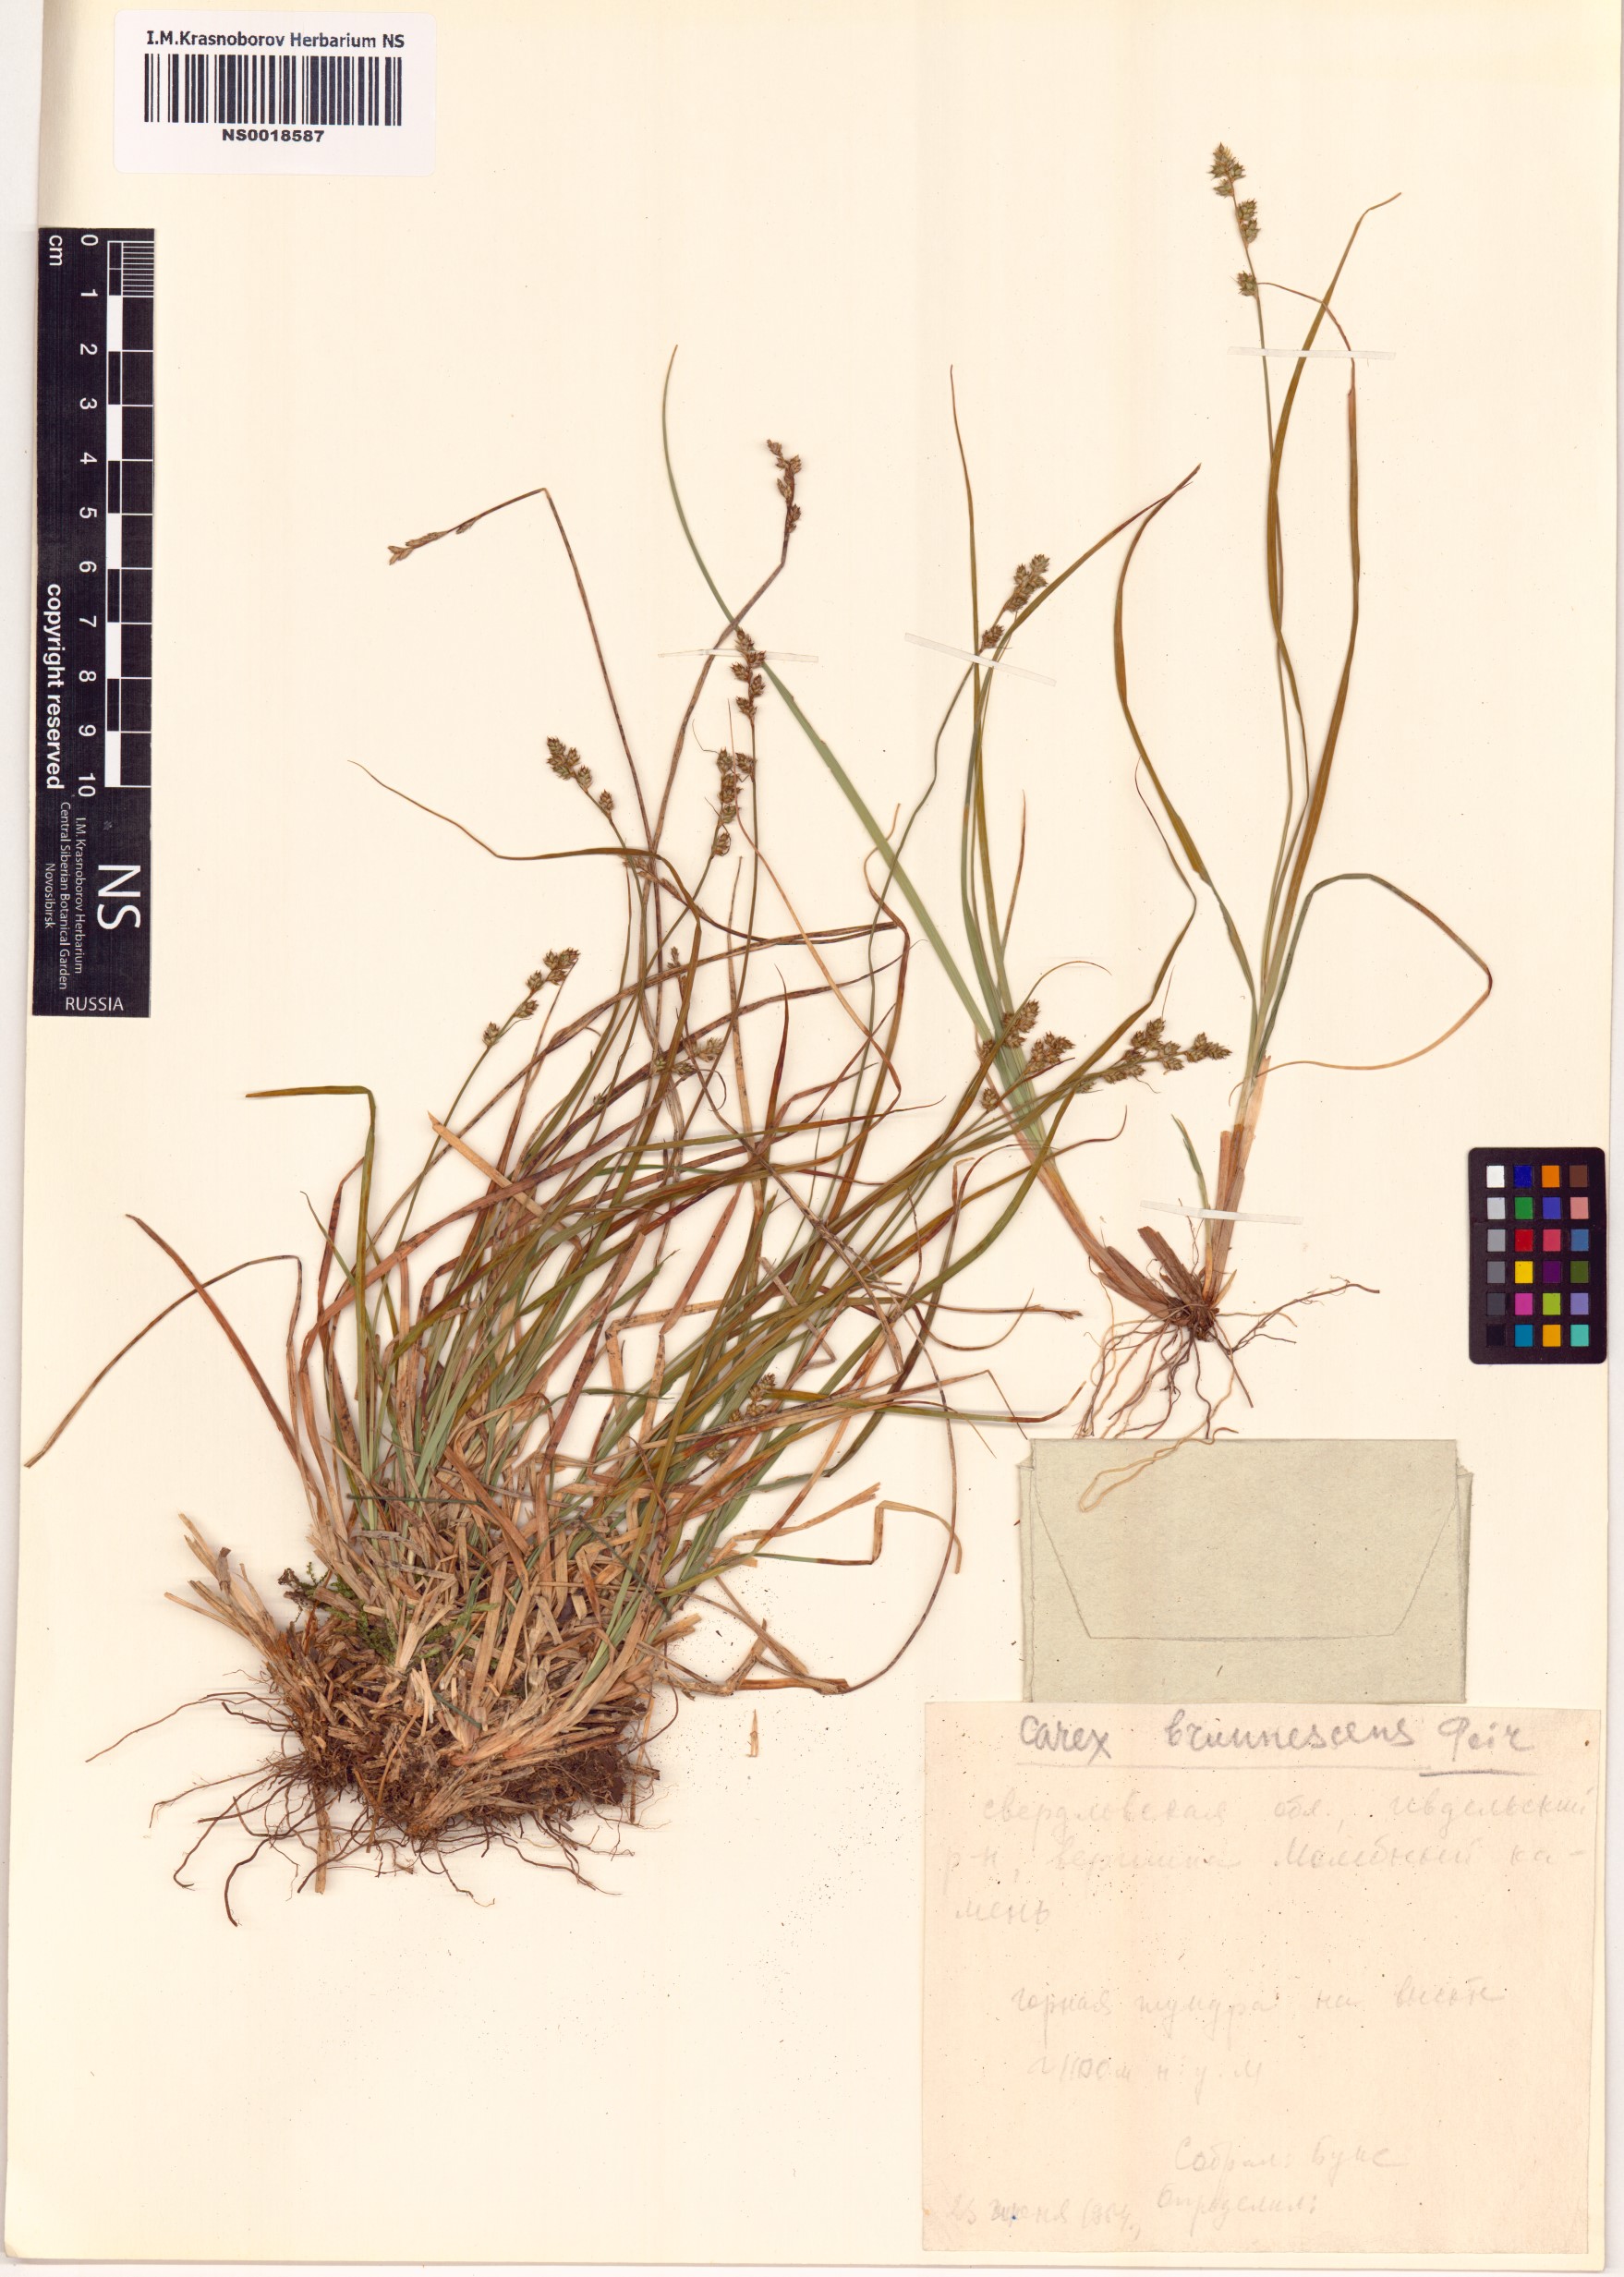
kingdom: Plantae
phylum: Tracheophyta
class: Liliopsida
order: Poales
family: Cyperaceae
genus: Carex
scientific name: Carex brunnescens
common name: Brown sedge
